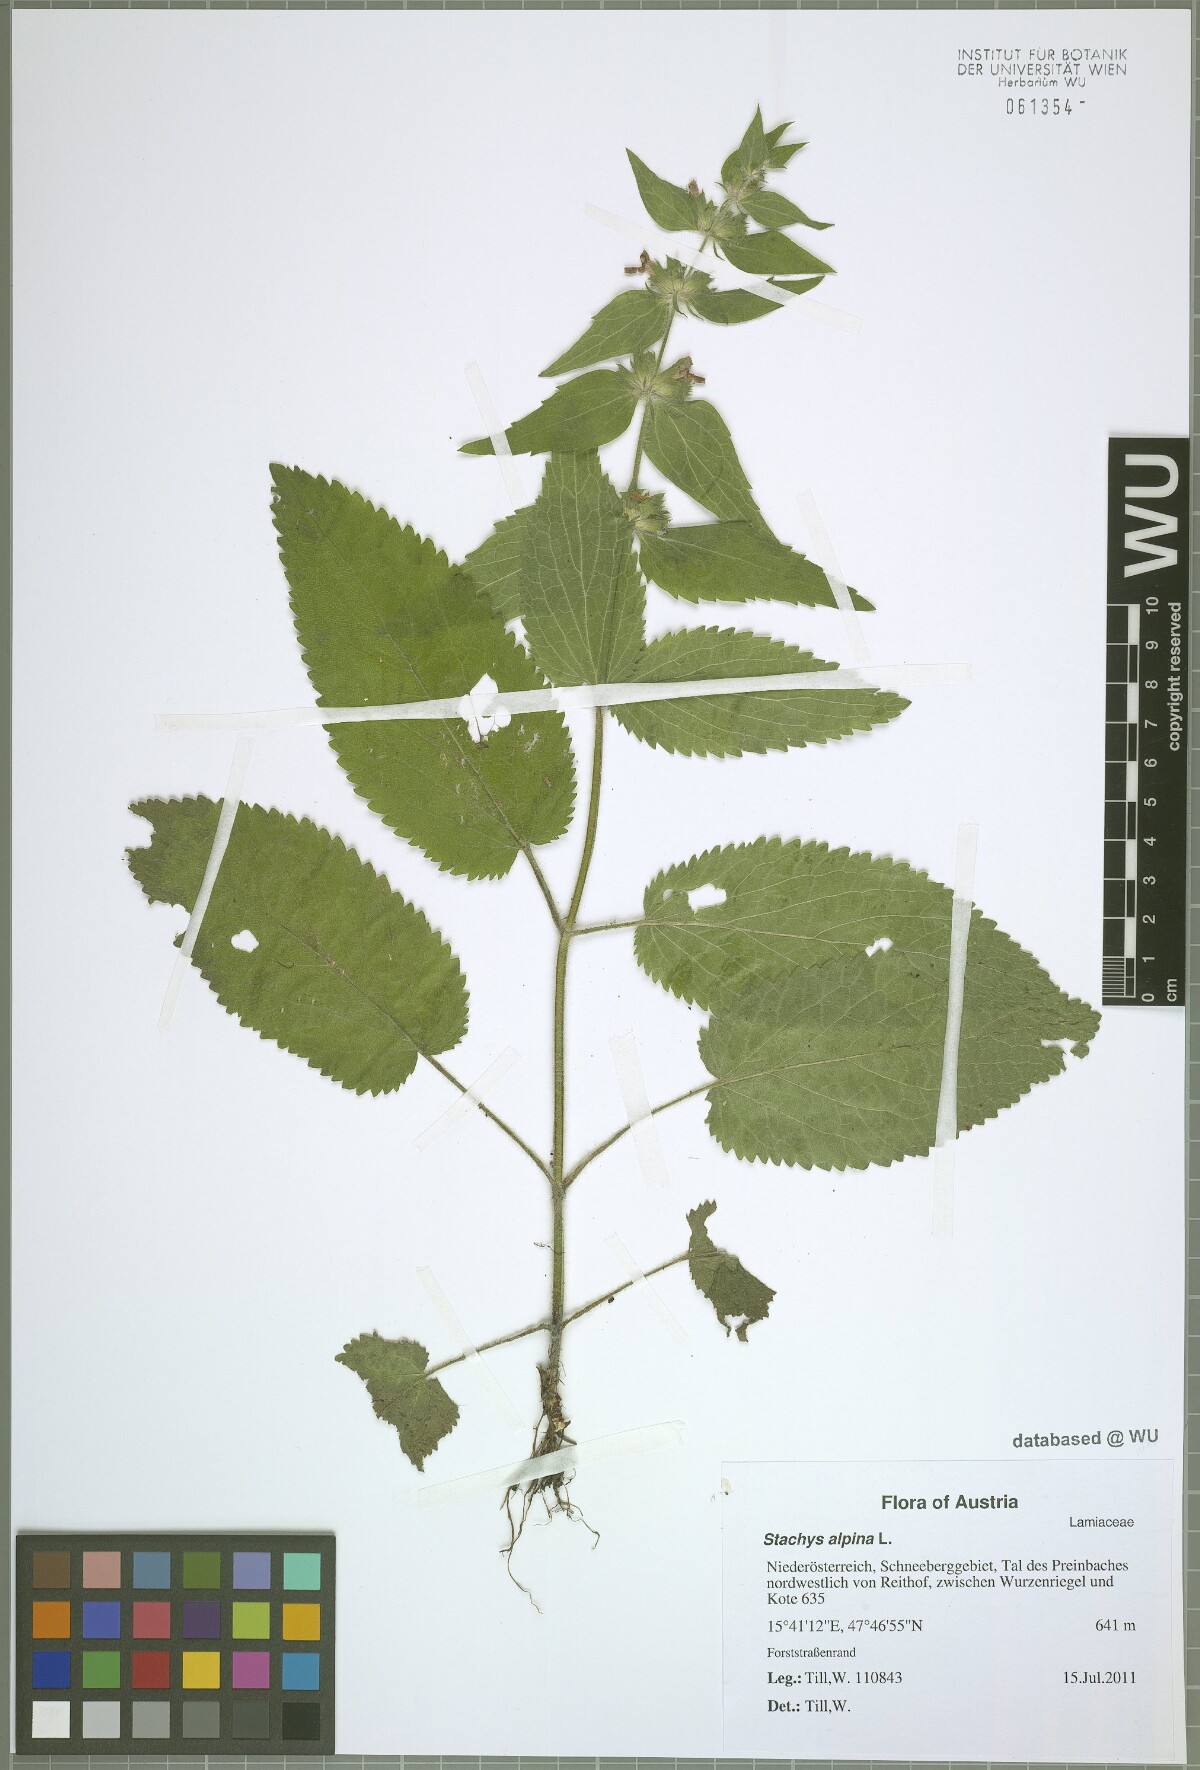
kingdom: Plantae
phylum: Tracheophyta
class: Magnoliopsida
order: Lamiales
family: Lamiaceae
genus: Stachys
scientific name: Stachys alpina
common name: Limestone woundwort
